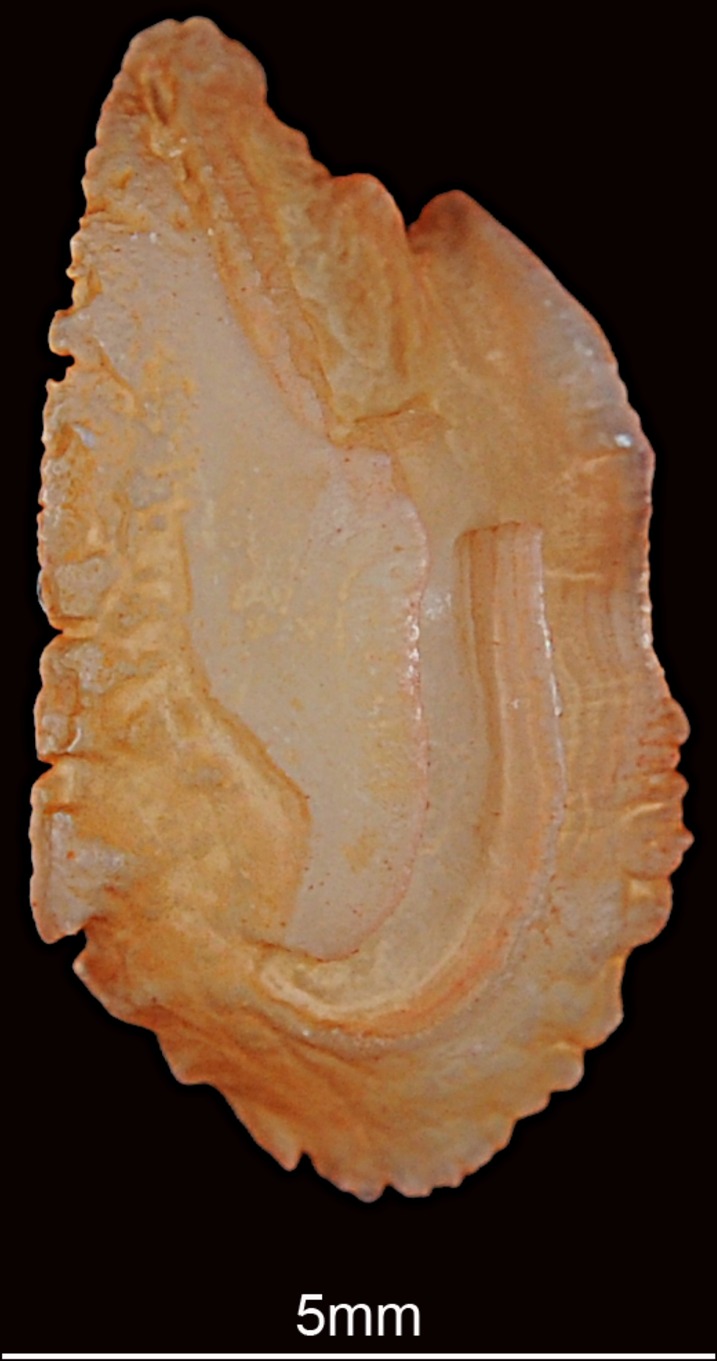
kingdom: Animalia
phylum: Chordata
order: Perciformes
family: Gerreidae
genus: Gerres
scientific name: Gerres oyena
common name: Common silver-biddy
